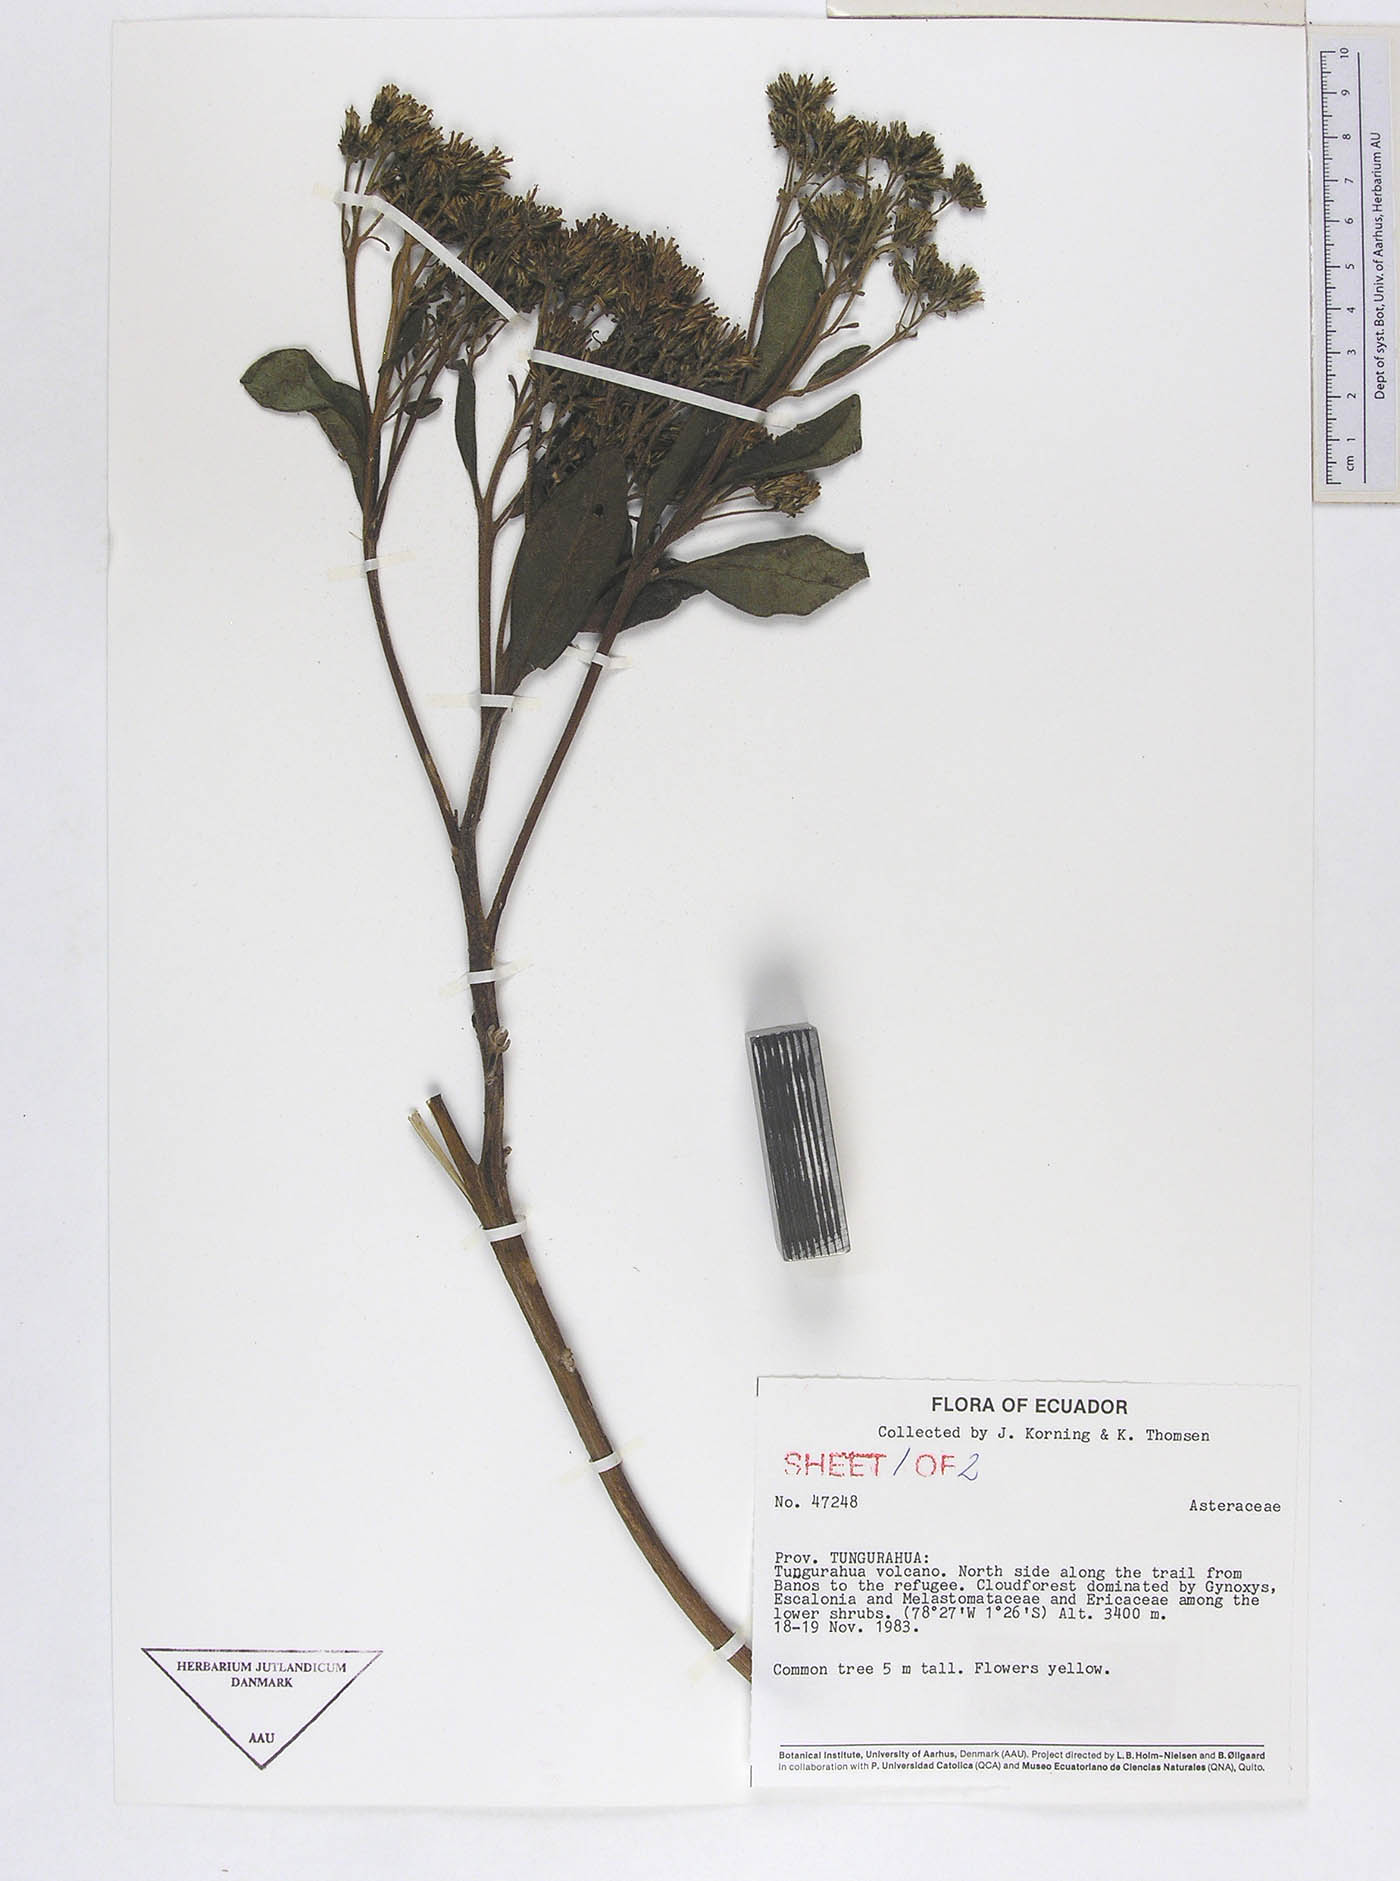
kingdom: Plantae
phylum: Tracheophyta
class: Magnoliopsida
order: Asterales
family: Asteraceae
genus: Verbesina
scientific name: Verbesina latisquama
